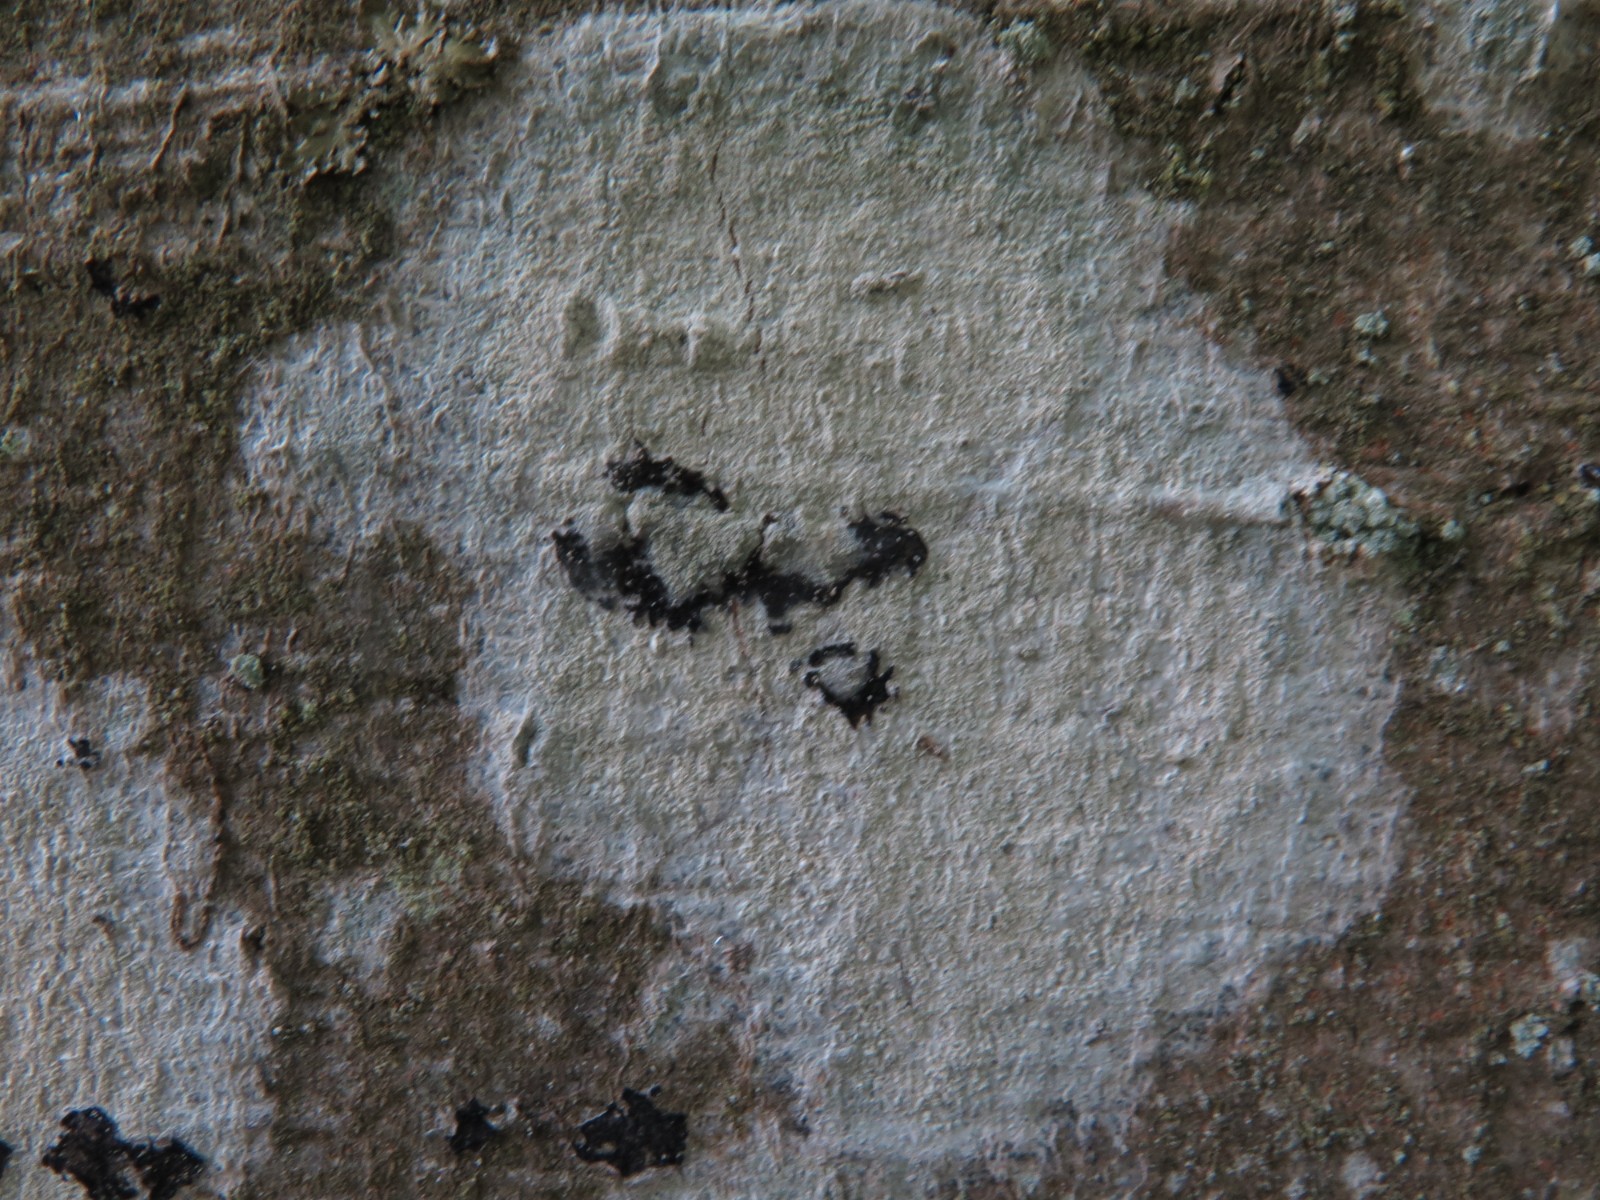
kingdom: Fungi
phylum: Ascomycota
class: Lecanoromycetes
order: Ostropales
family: Phlyctidaceae
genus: Phlyctis
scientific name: Phlyctis argena
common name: almindelig sølvlav
